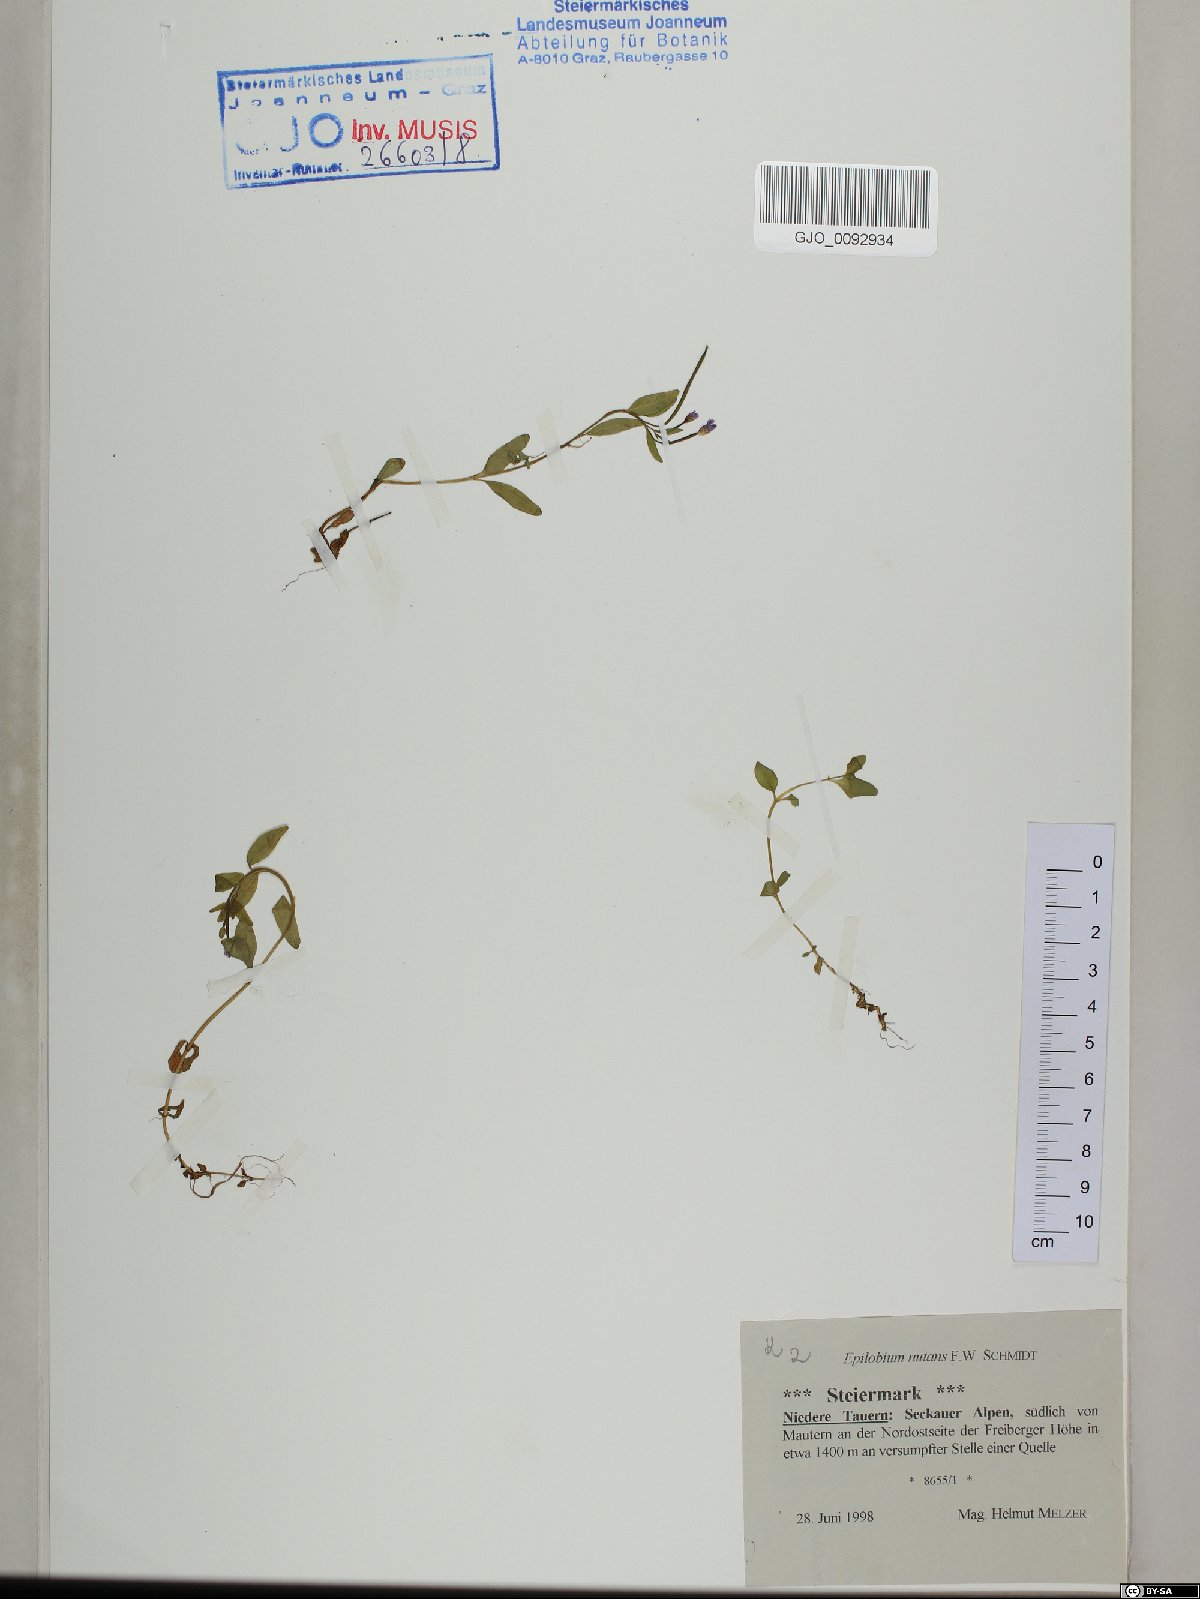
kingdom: Plantae
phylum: Tracheophyta
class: Magnoliopsida
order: Myrtales
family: Onagraceae
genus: Epilobium
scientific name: Epilobium nutans
